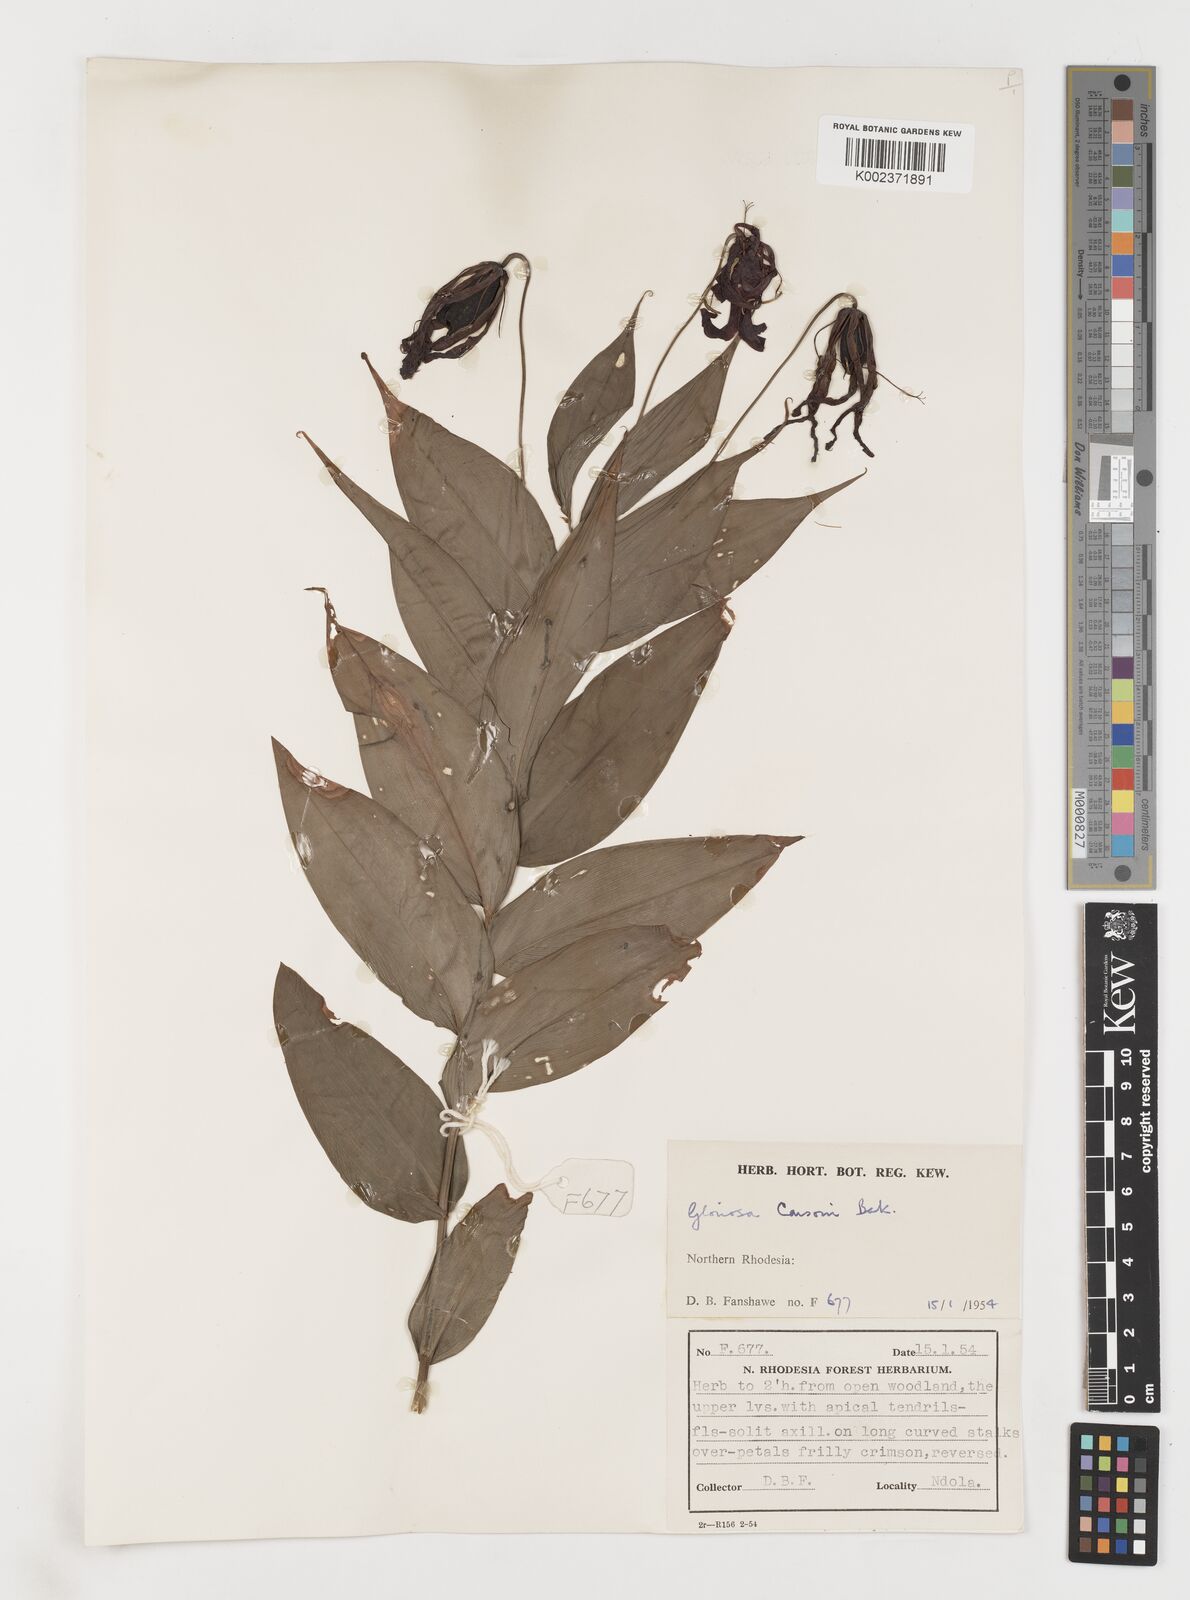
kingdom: Plantae
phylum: Tracheophyta
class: Liliopsida
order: Liliales
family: Colchicaceae
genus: Gloriosa
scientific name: Gloriosa simplex
